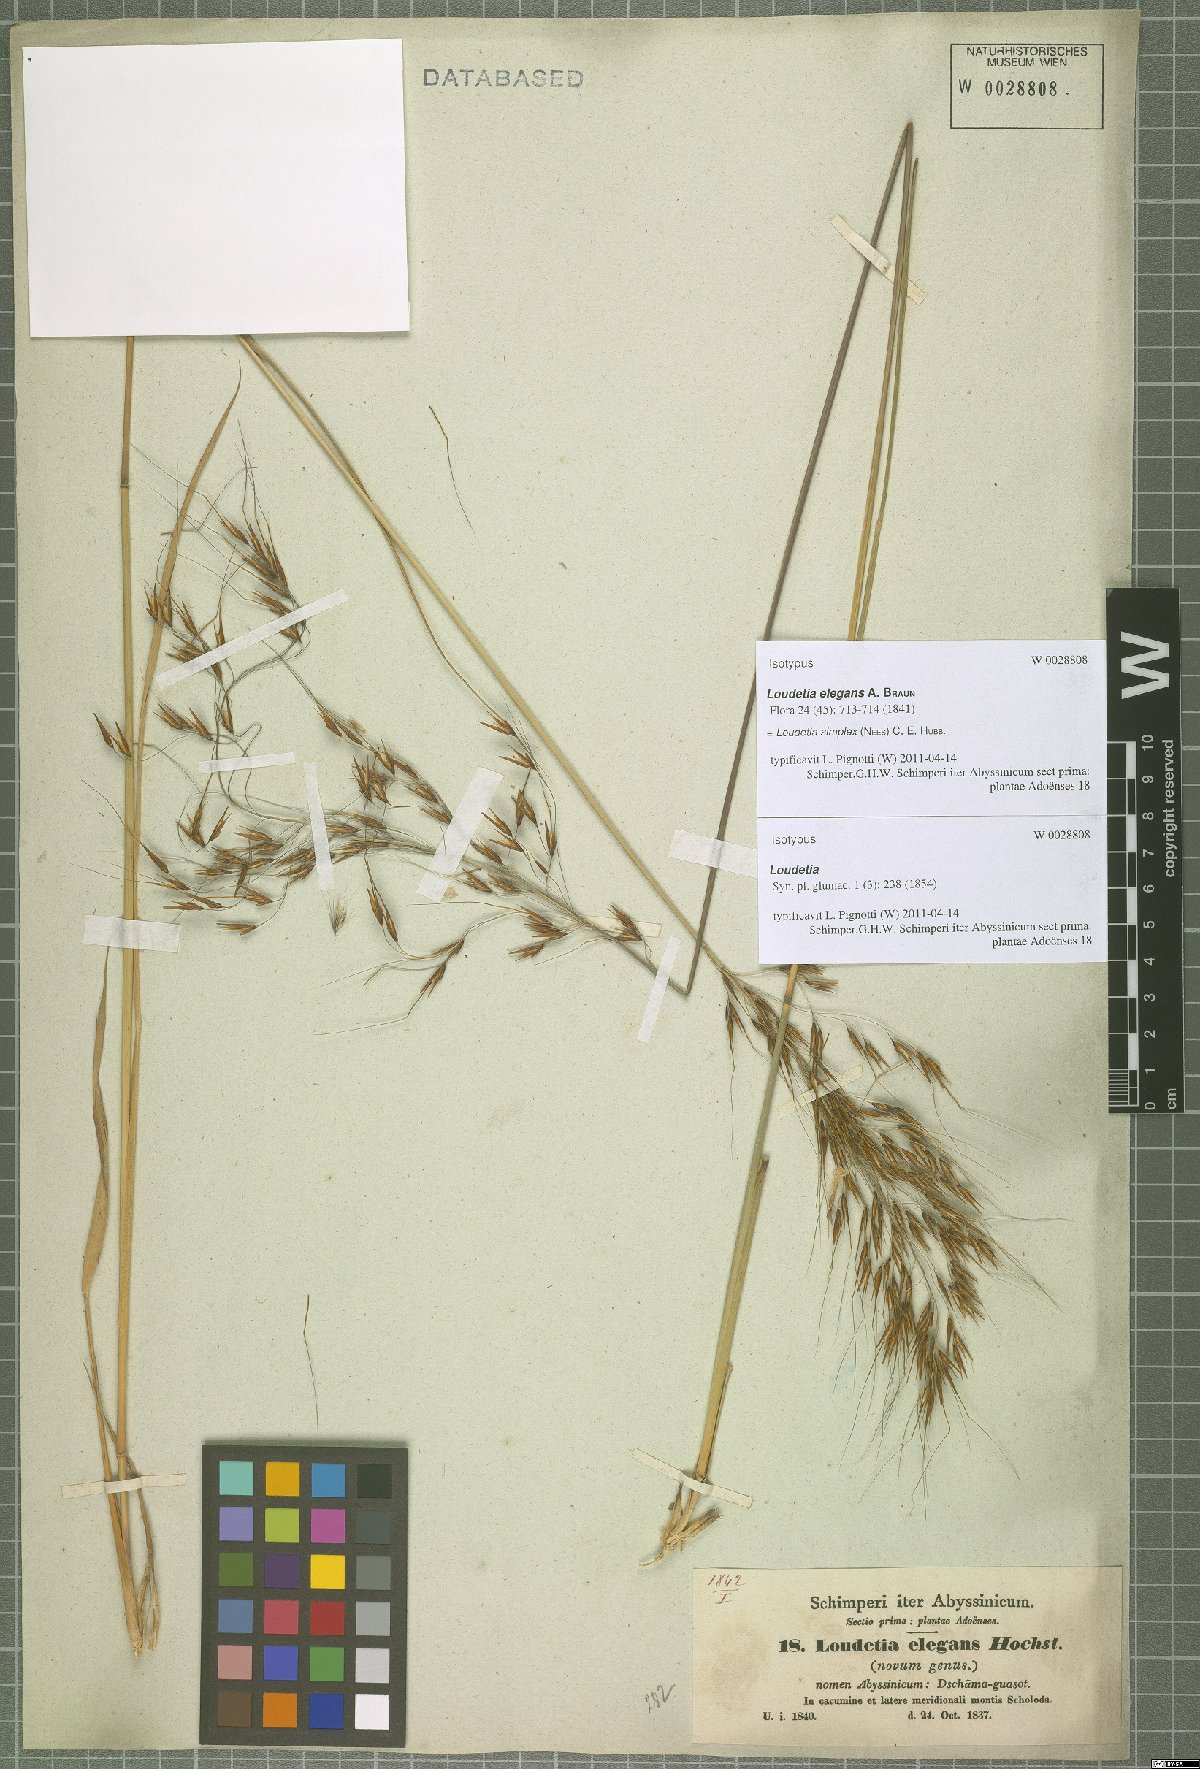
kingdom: Plantae
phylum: Tracheophyta
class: Liliopsida
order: Poales
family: Poaceae
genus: Loudetia
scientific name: Loudetia simplex
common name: Common russet grass
